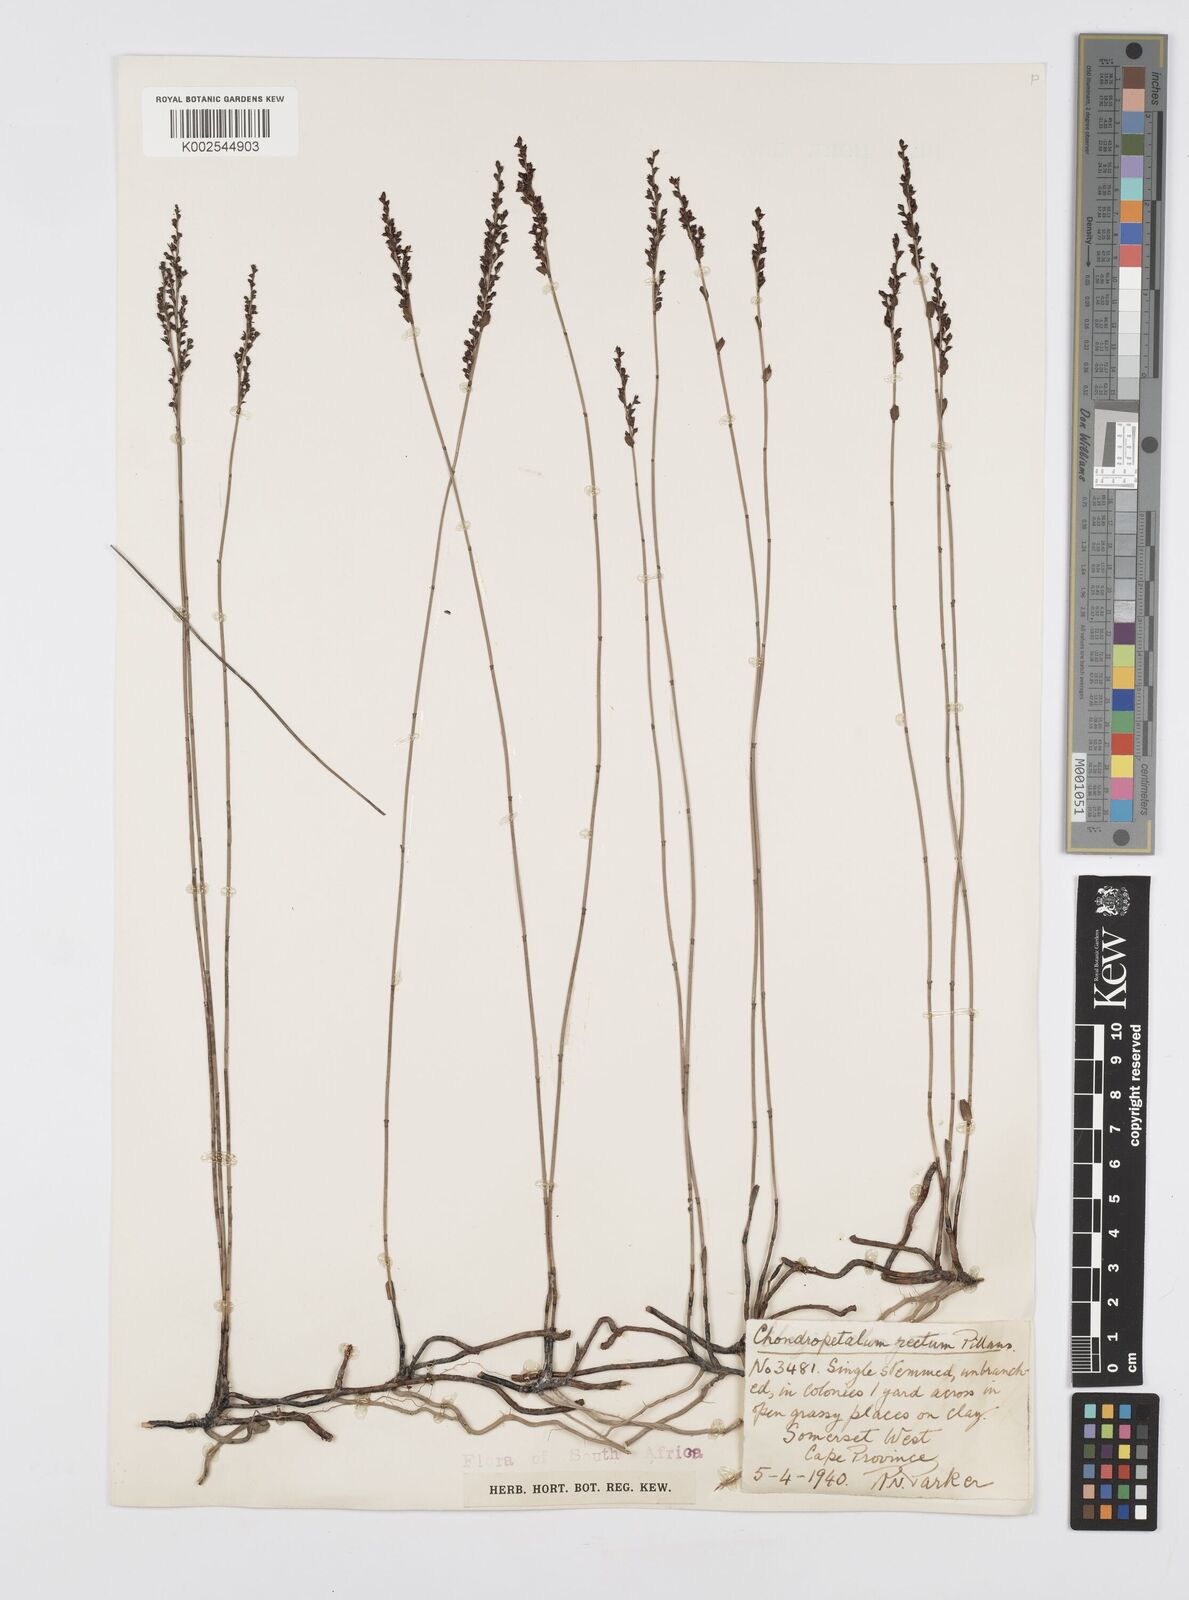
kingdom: Plantae
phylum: Tracheophyta
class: Liliopsida
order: Poales
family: Restionaceae
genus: Elegia
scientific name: Elegia recta
